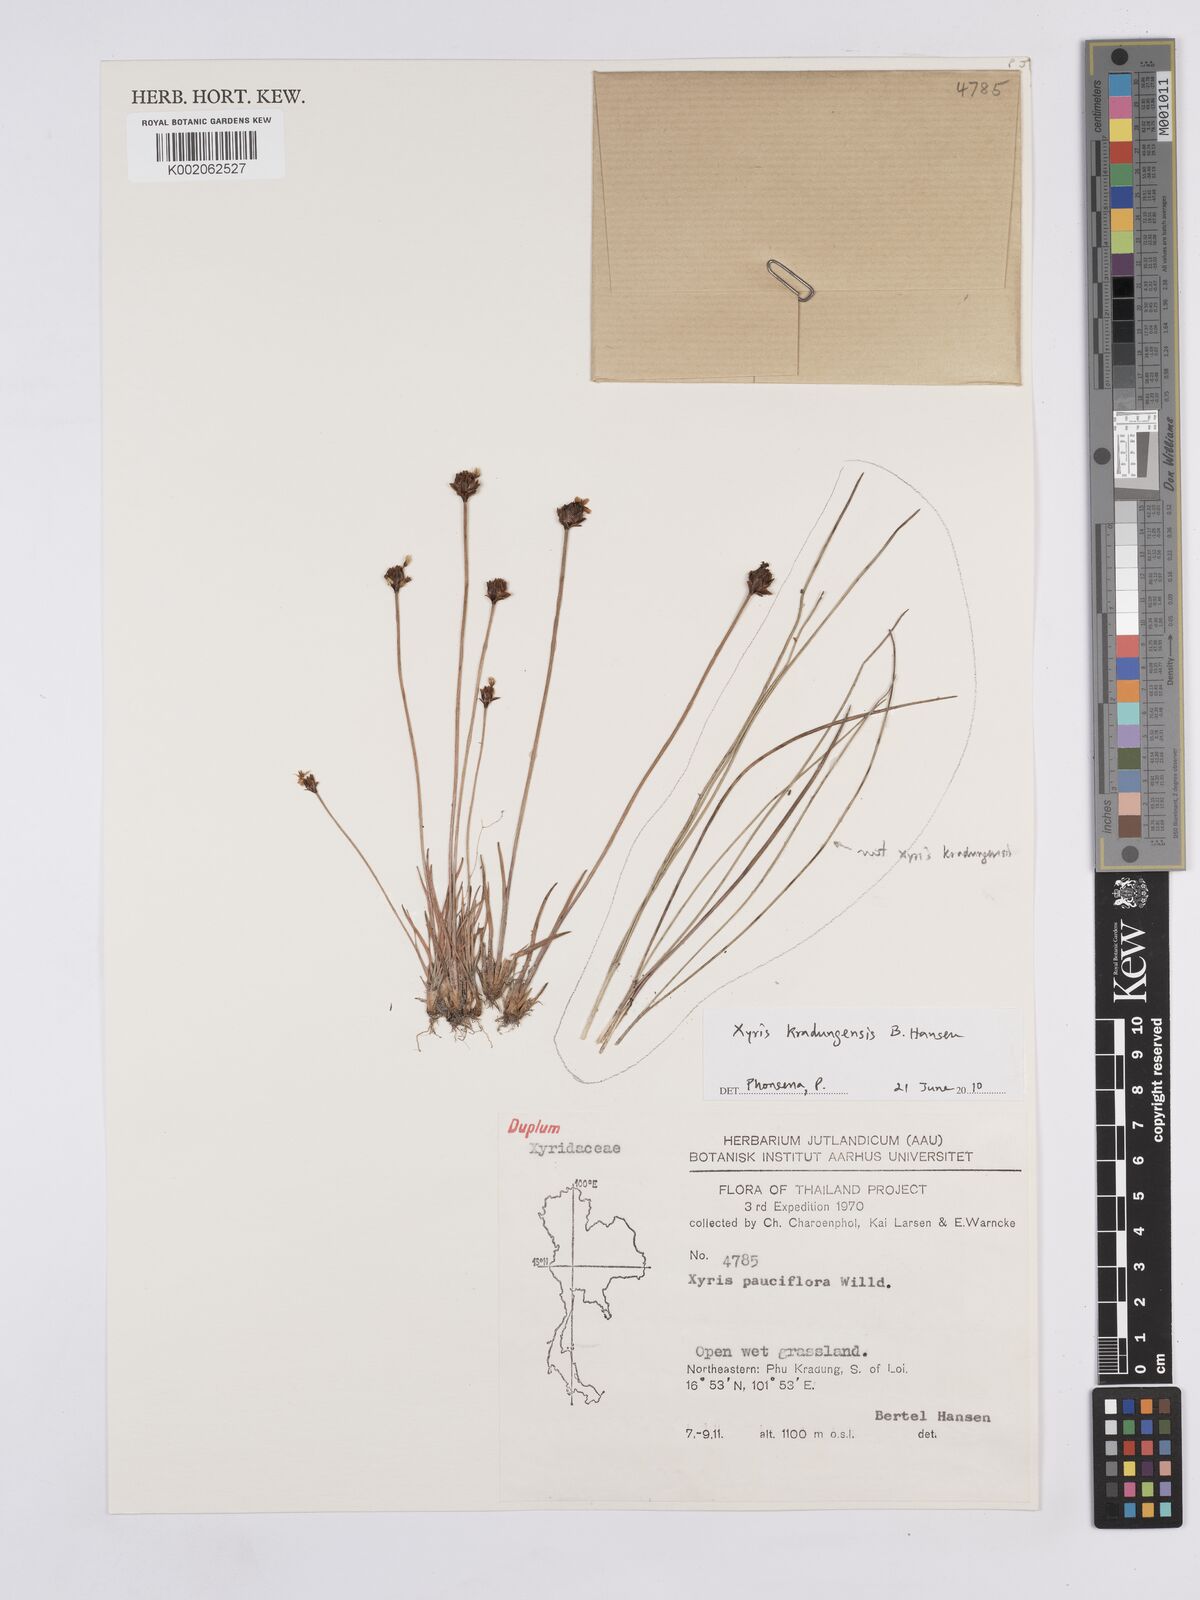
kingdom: Plantae
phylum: Tracheophyta
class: Liliopsida
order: Poales
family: Xyridaceae
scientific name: Xyridaceae
